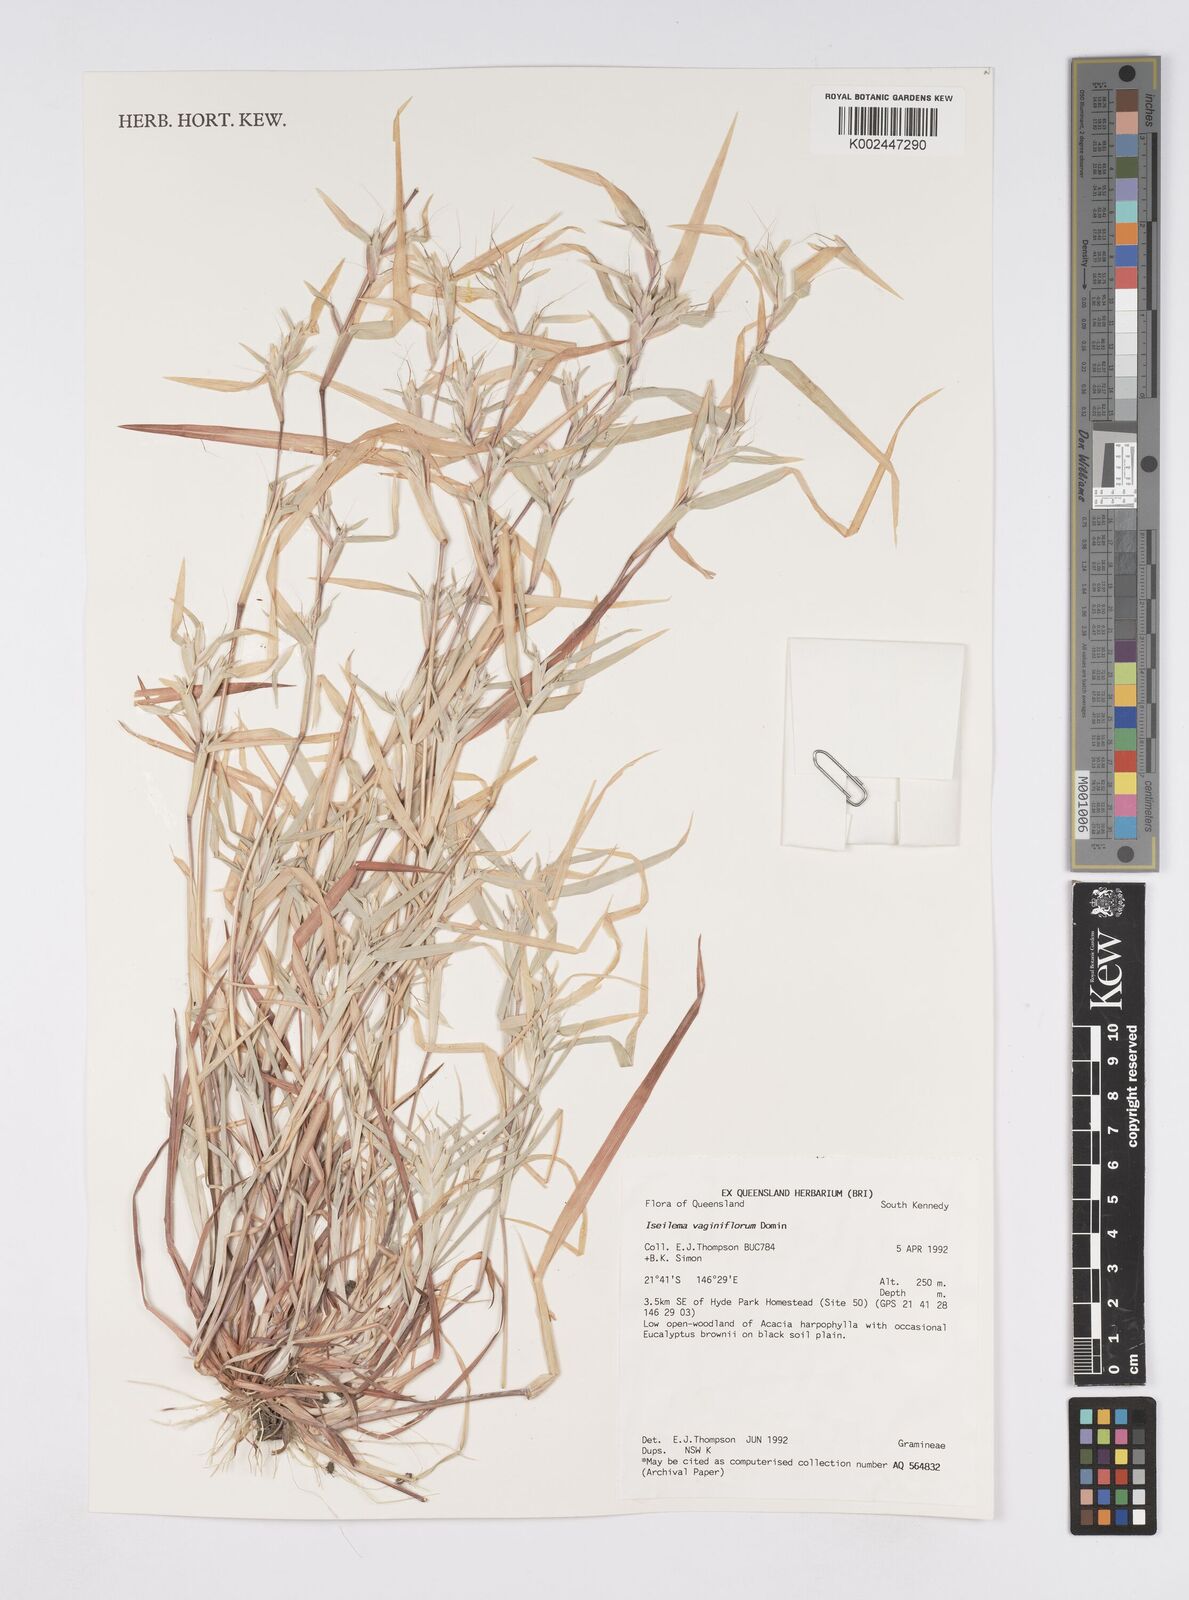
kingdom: Plantae
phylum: Tracheophyta
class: Liliopsida
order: Poales
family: Poaceae
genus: Iseilema
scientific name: Iseilema vaginiflorum
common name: Red flinders grass
